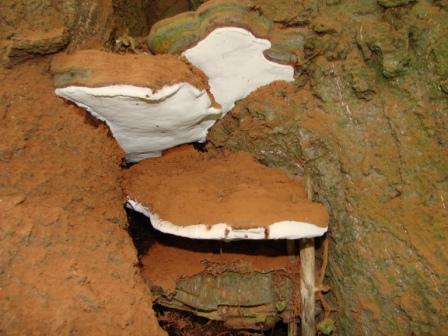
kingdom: Fungi
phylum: Basidiomycota
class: Agaricomycetes
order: Polyporales
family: Polyporaceae
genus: Ganoderma
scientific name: Ganoderma pfeifferi
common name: kobberrød lakporesvamp
